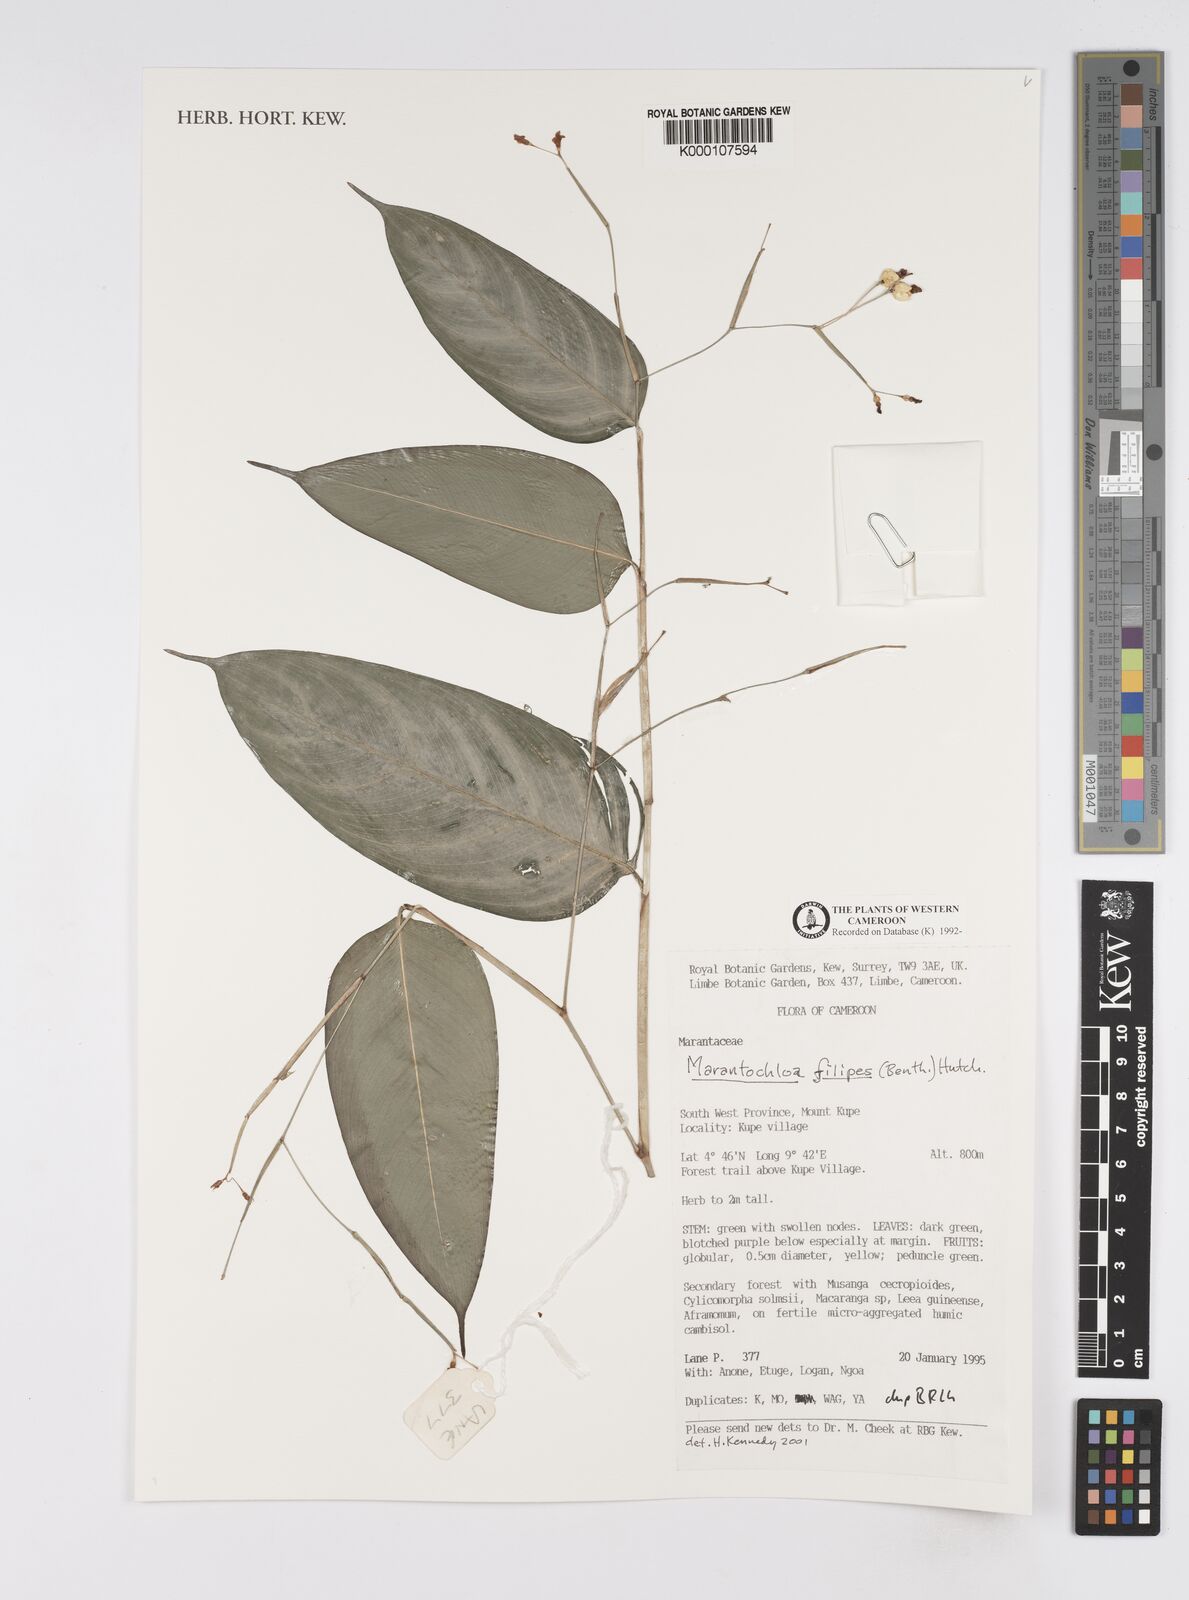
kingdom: Plantae
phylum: Tracheophyta
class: Liliopsida
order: Zingiberales
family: Marantaceae
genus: Marantochloa
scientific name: Marantochloa filipes
